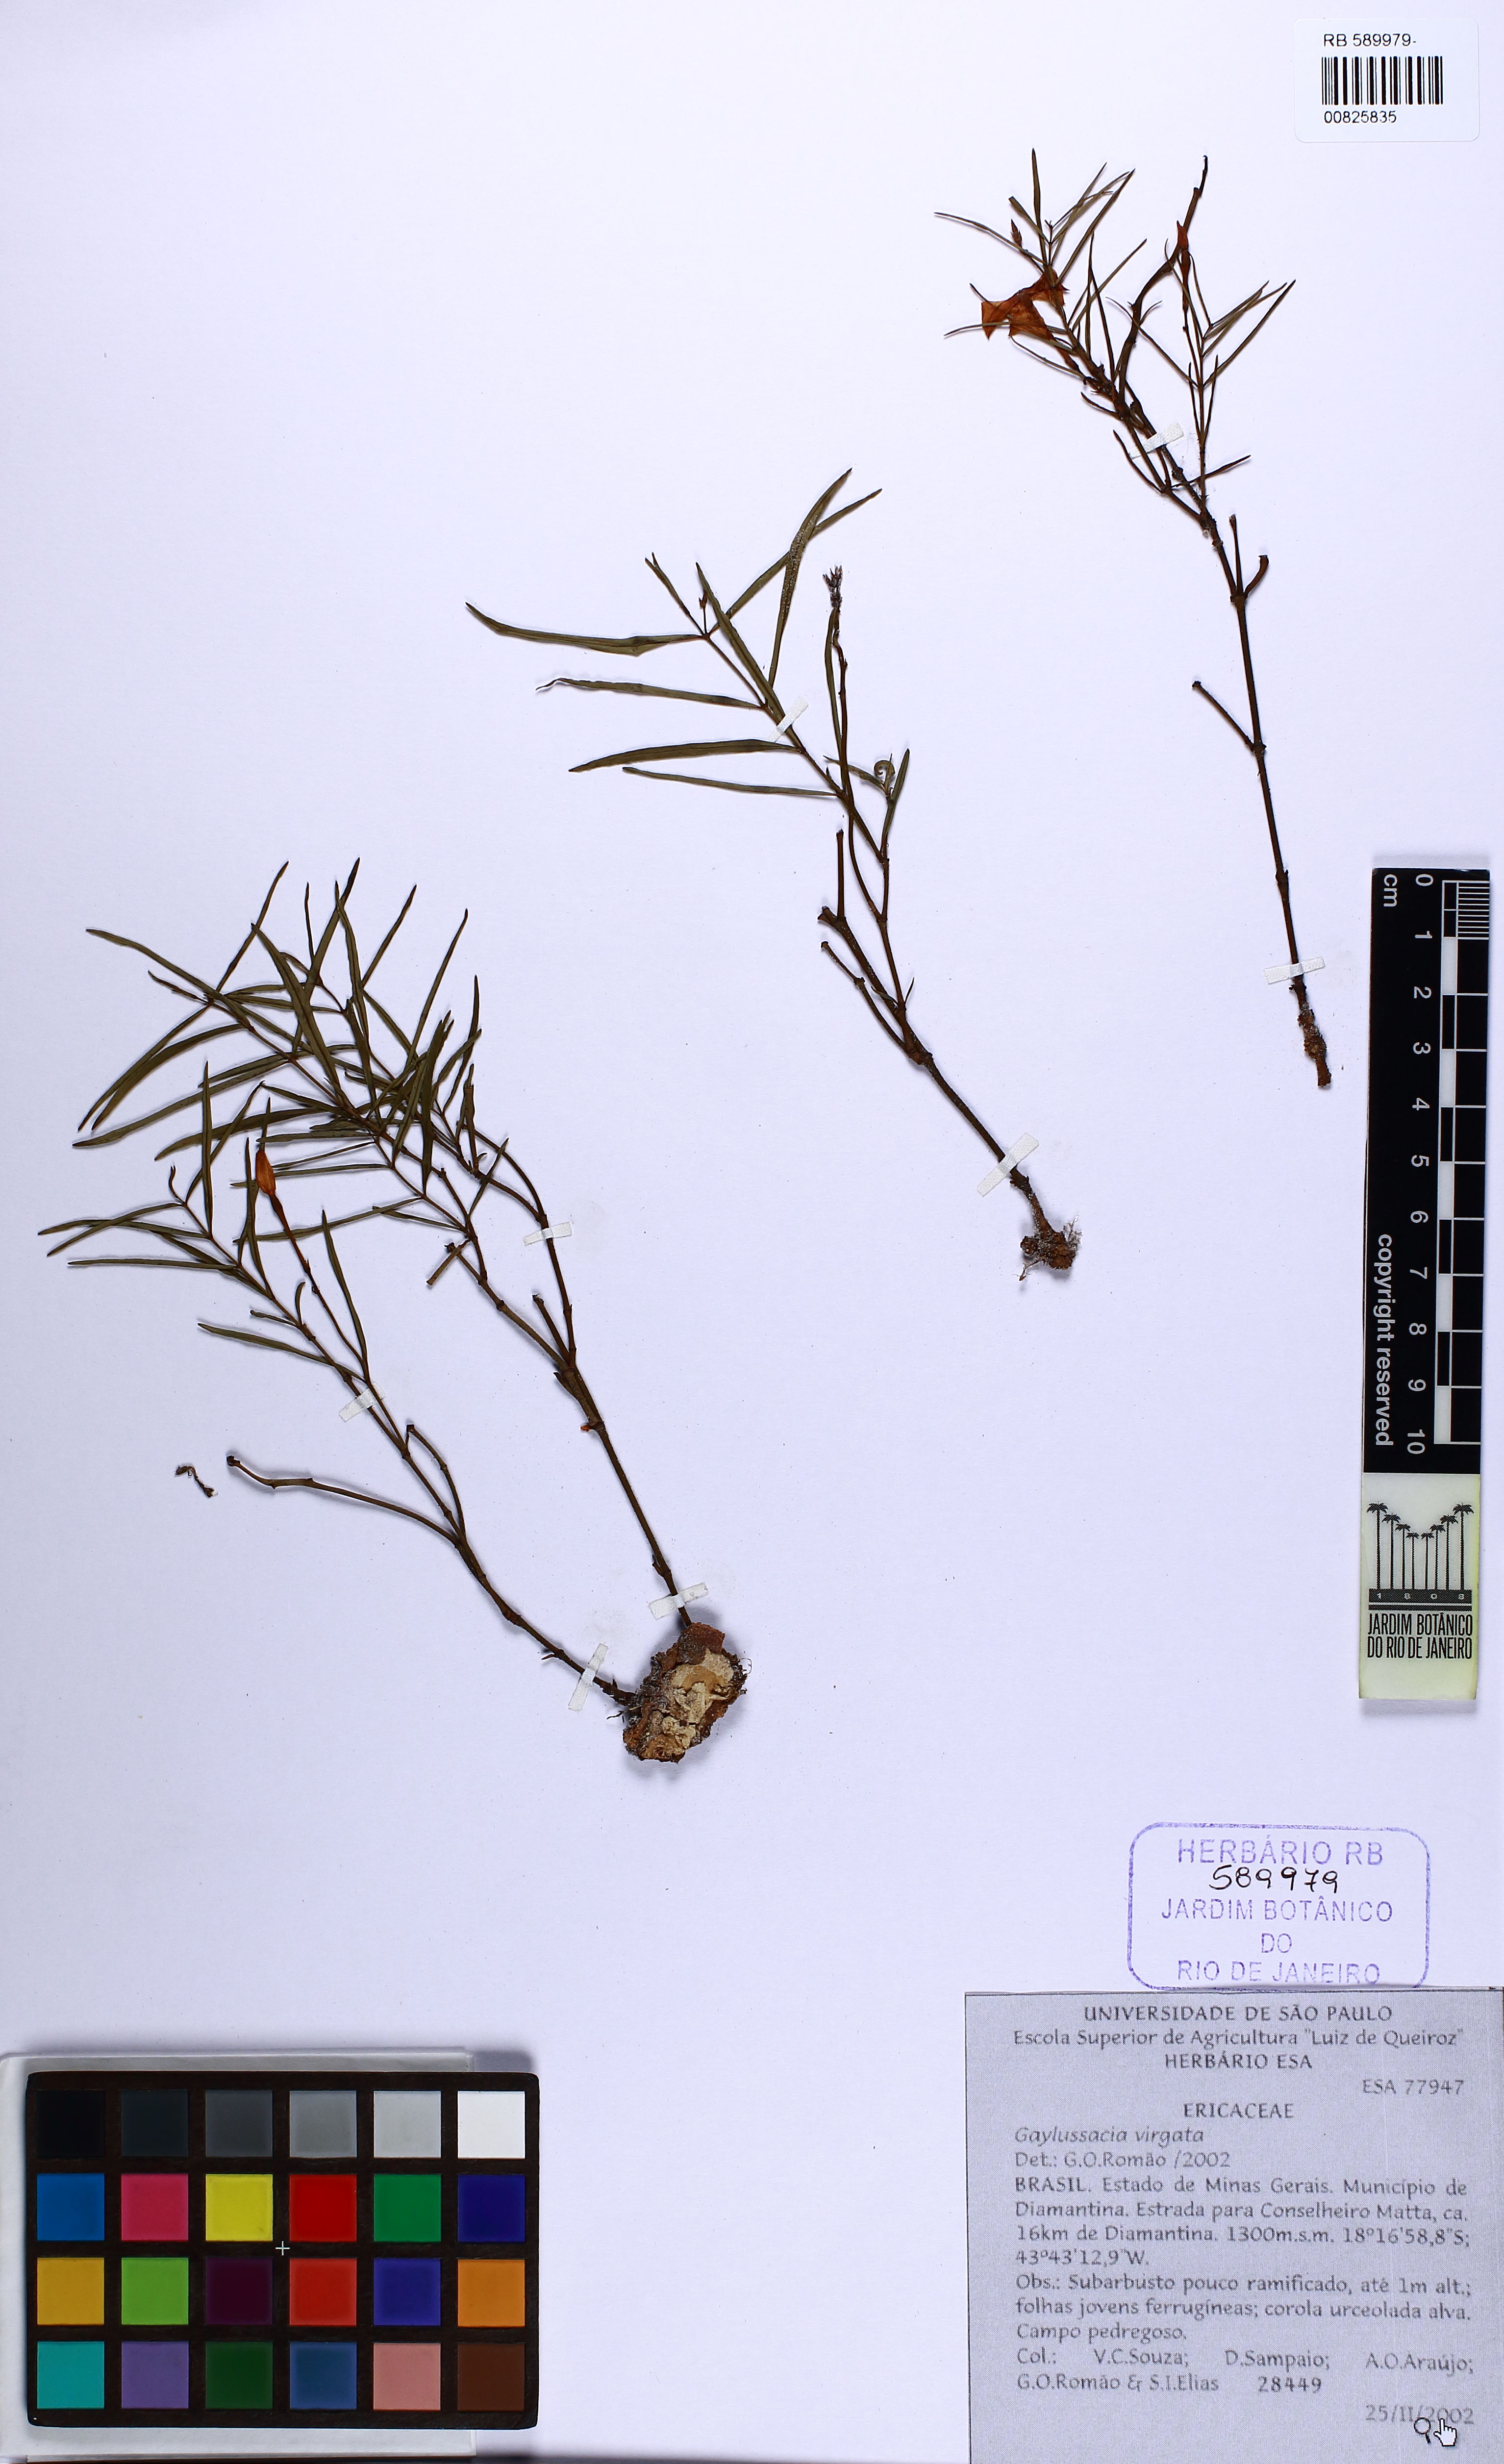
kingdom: Plantae
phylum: Tracheophyta
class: Magnoliopsida
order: Ericales
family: Ericaceae
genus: Gaylussacia
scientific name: Gaylussacia virgata
